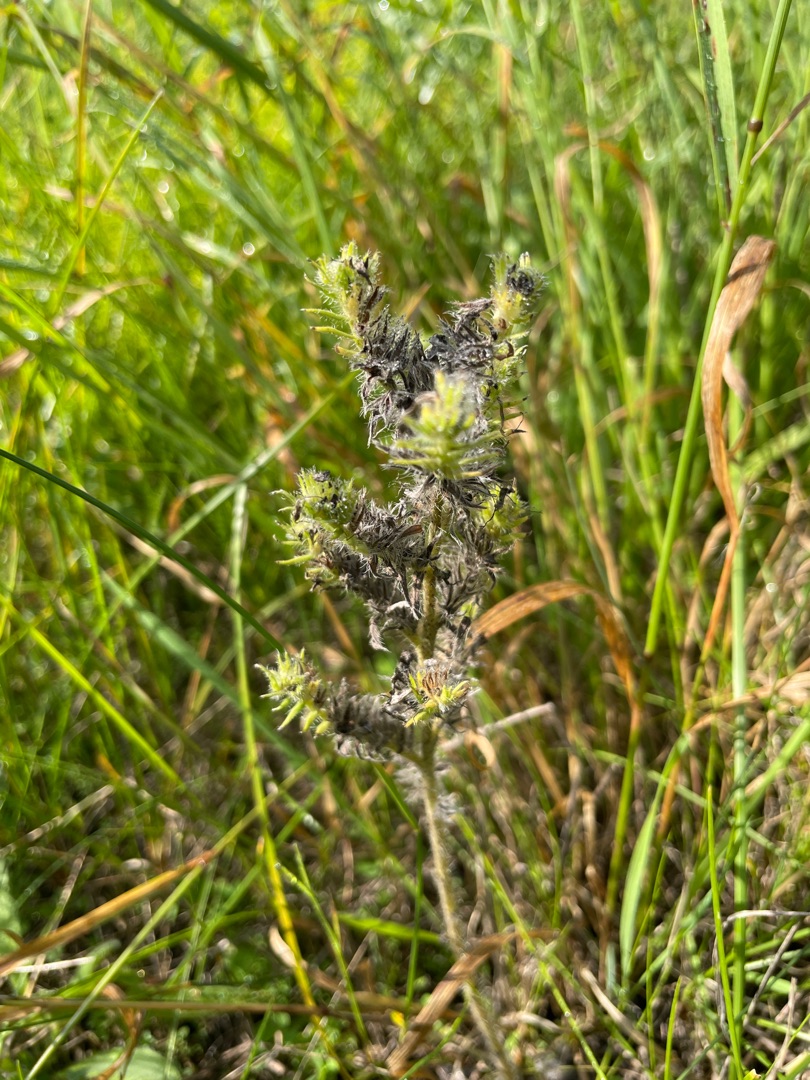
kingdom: Plantae
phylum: Tracheophyta
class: Magnoliopsida
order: Boraginales
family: Boraginaceae
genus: Echium
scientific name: Echium vulgare
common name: Slangehoved
